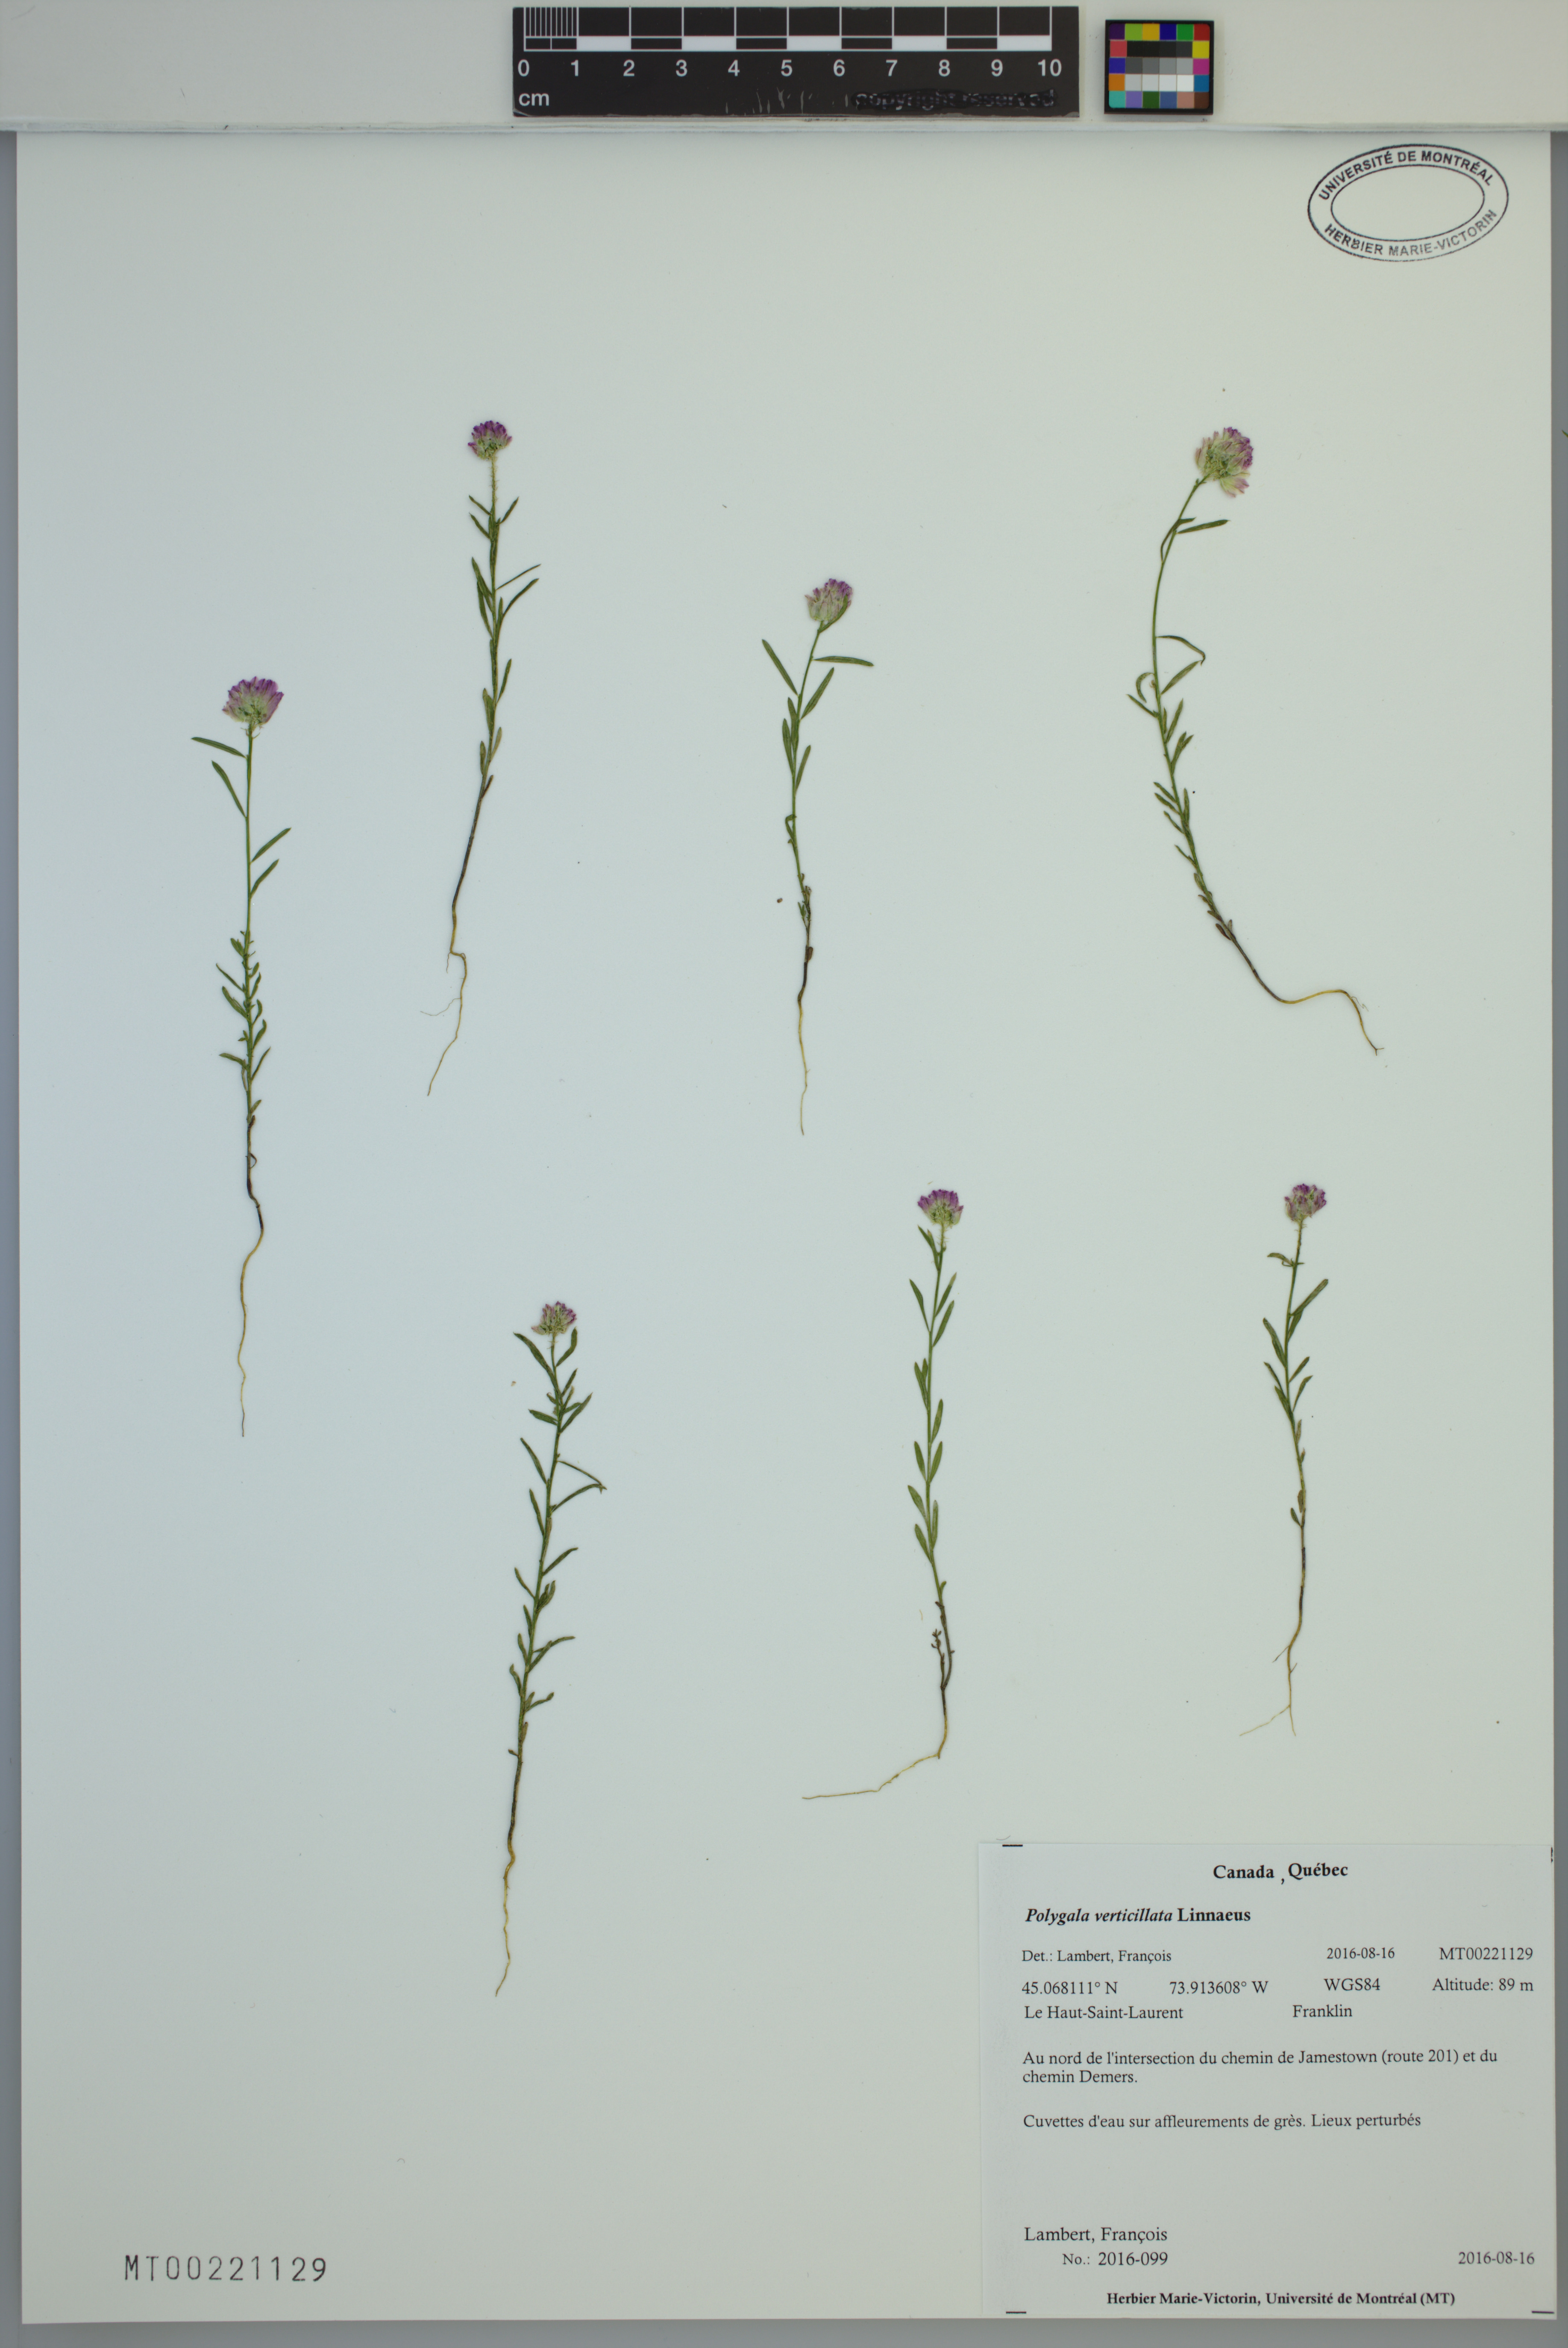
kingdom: Plantae
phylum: Tracheophyta
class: Magnoliopsida
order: Fabales
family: Polygalaceae
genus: Polygala
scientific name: Polygala verticillata
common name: Whorl milkwort
